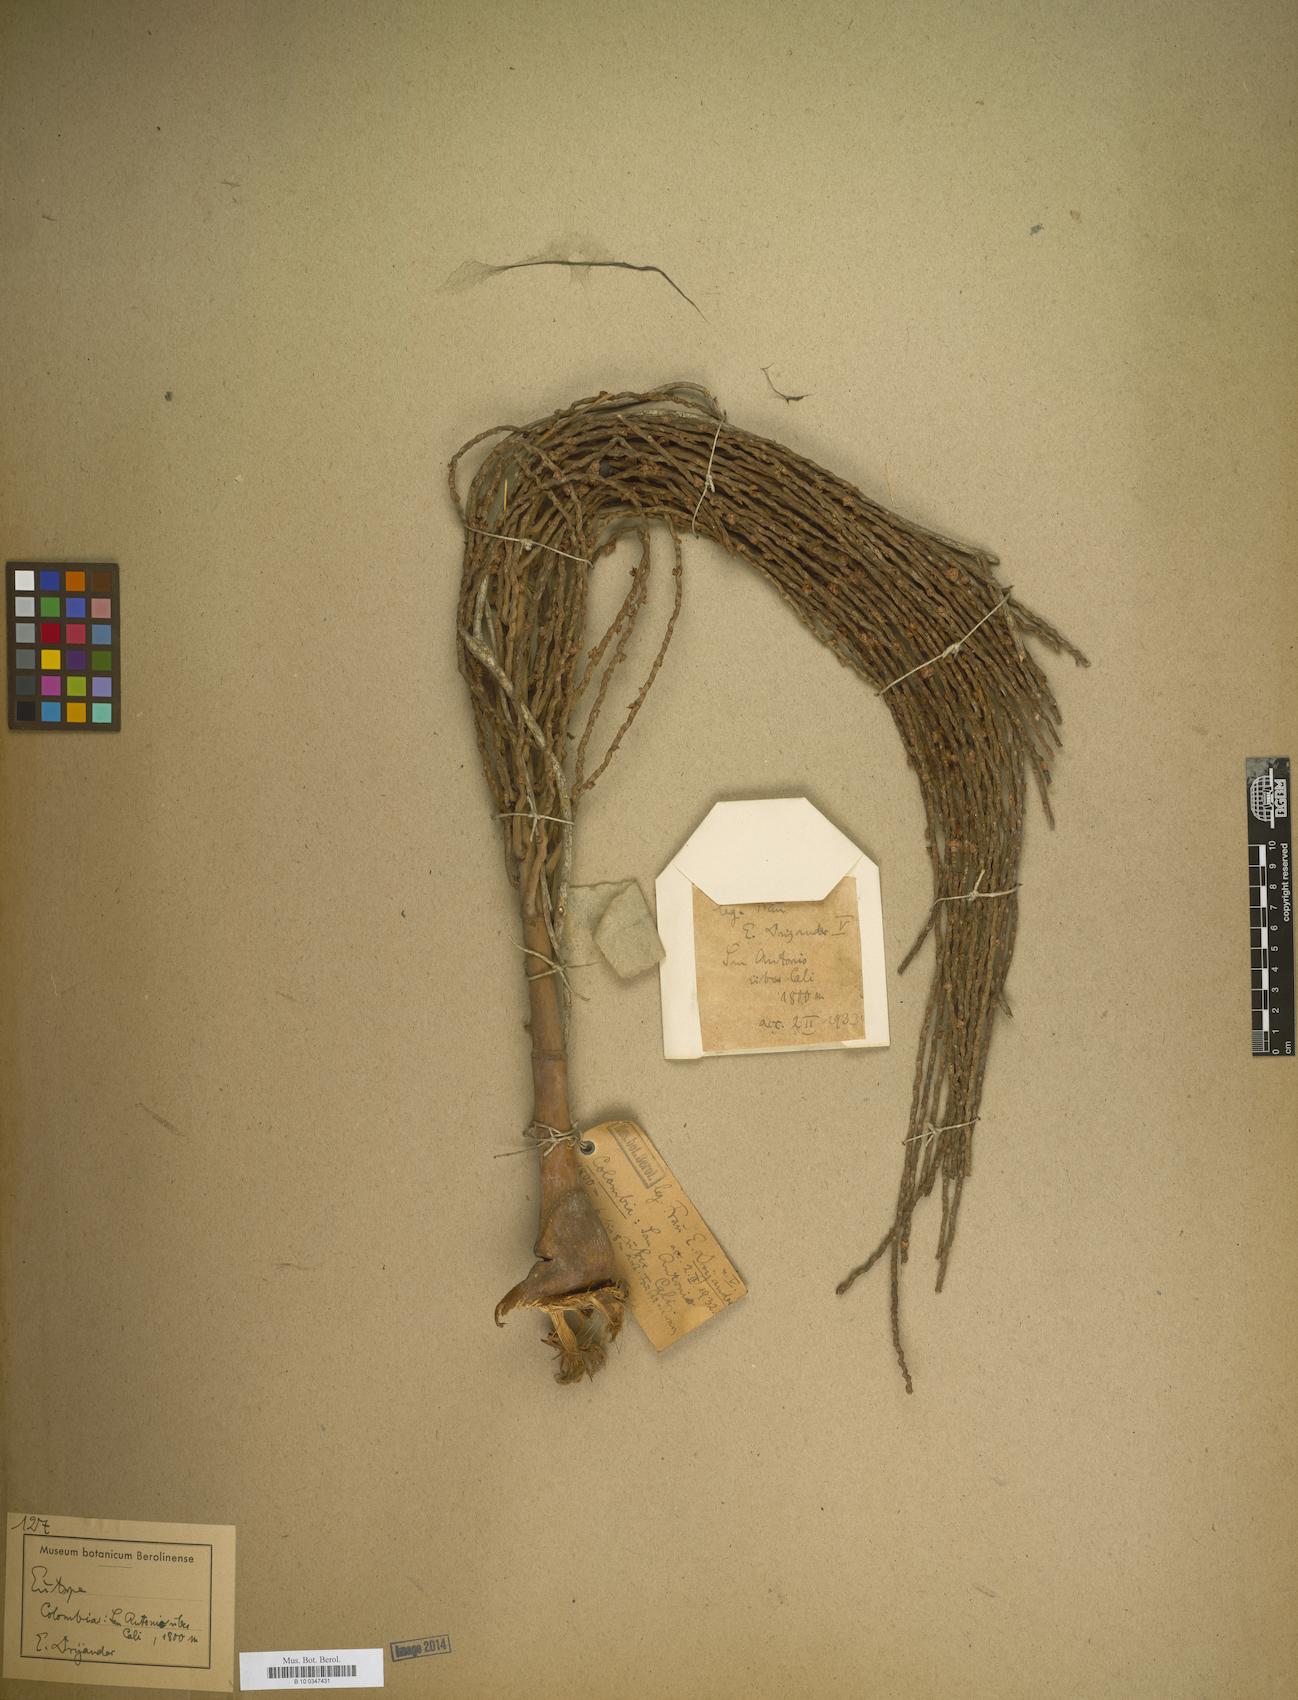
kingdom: Plantae
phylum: Tracheophyta
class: Liliopsida
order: Arecales
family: Arecaceae
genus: Euterpe
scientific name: Euterpe
